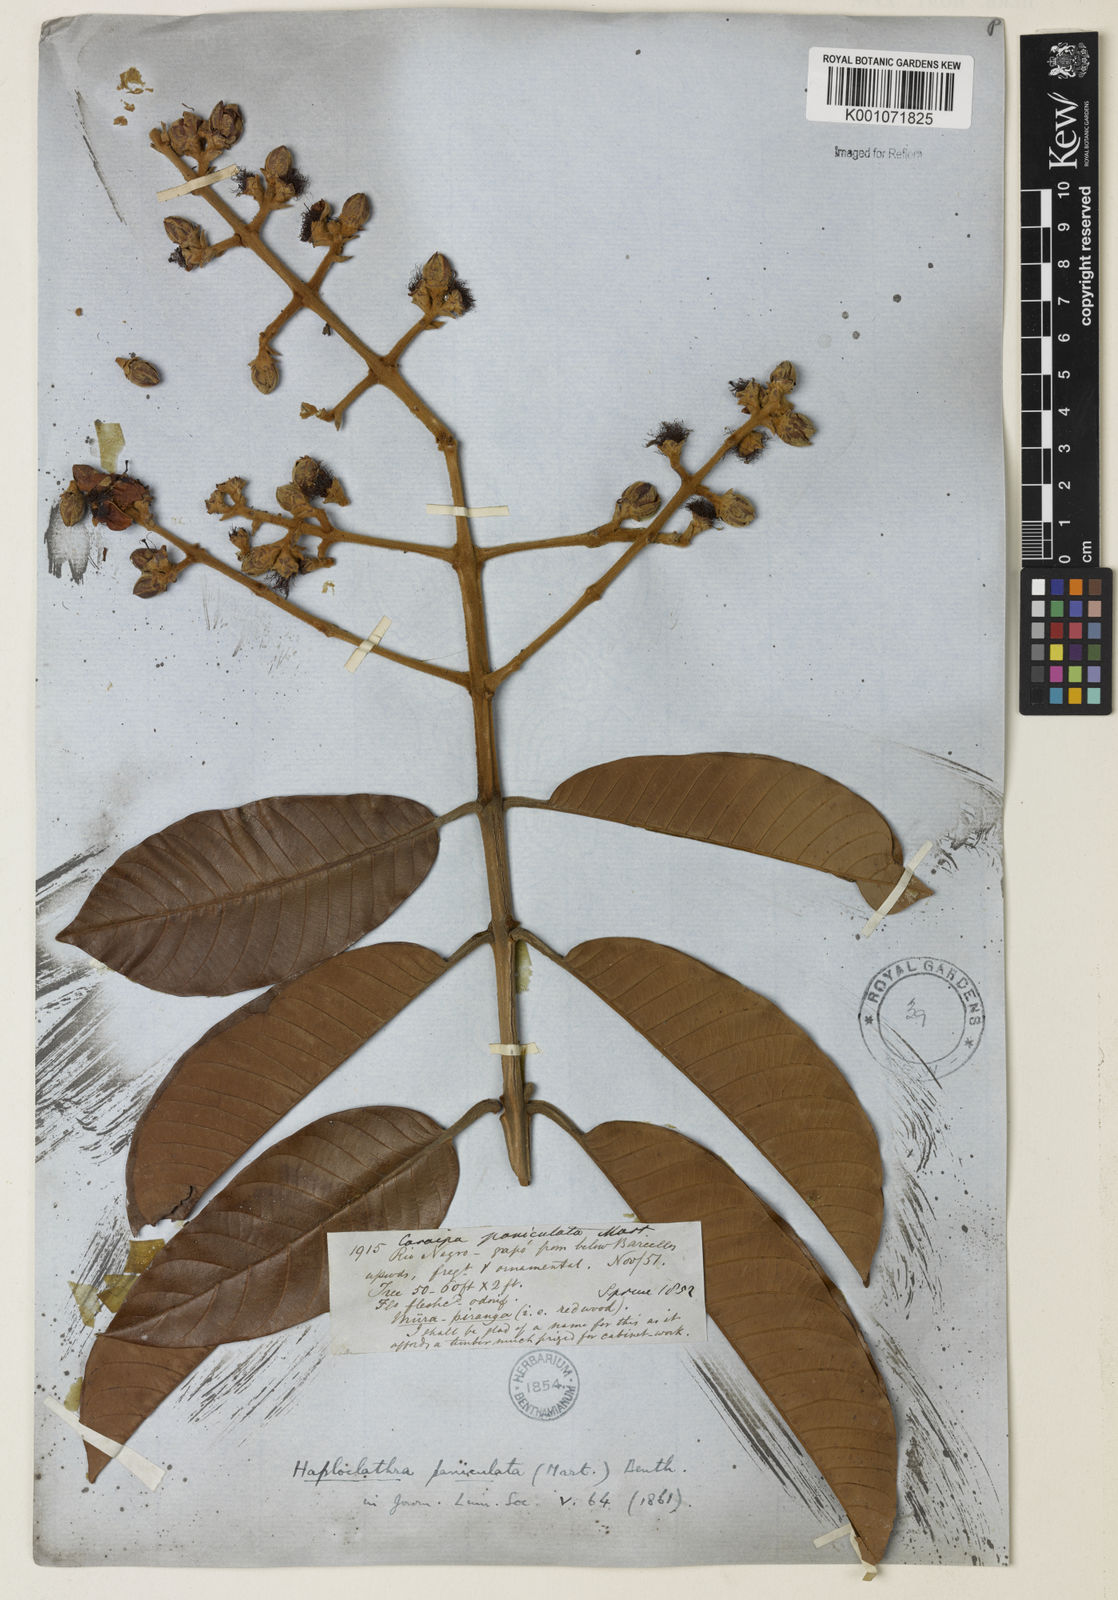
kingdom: Plantae
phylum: Tracheophyta
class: Magnoliopsida
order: Malpighiales
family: Calophyllaceae
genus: Haploclathra
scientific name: Haploclathra paniculata
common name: Red-wood
